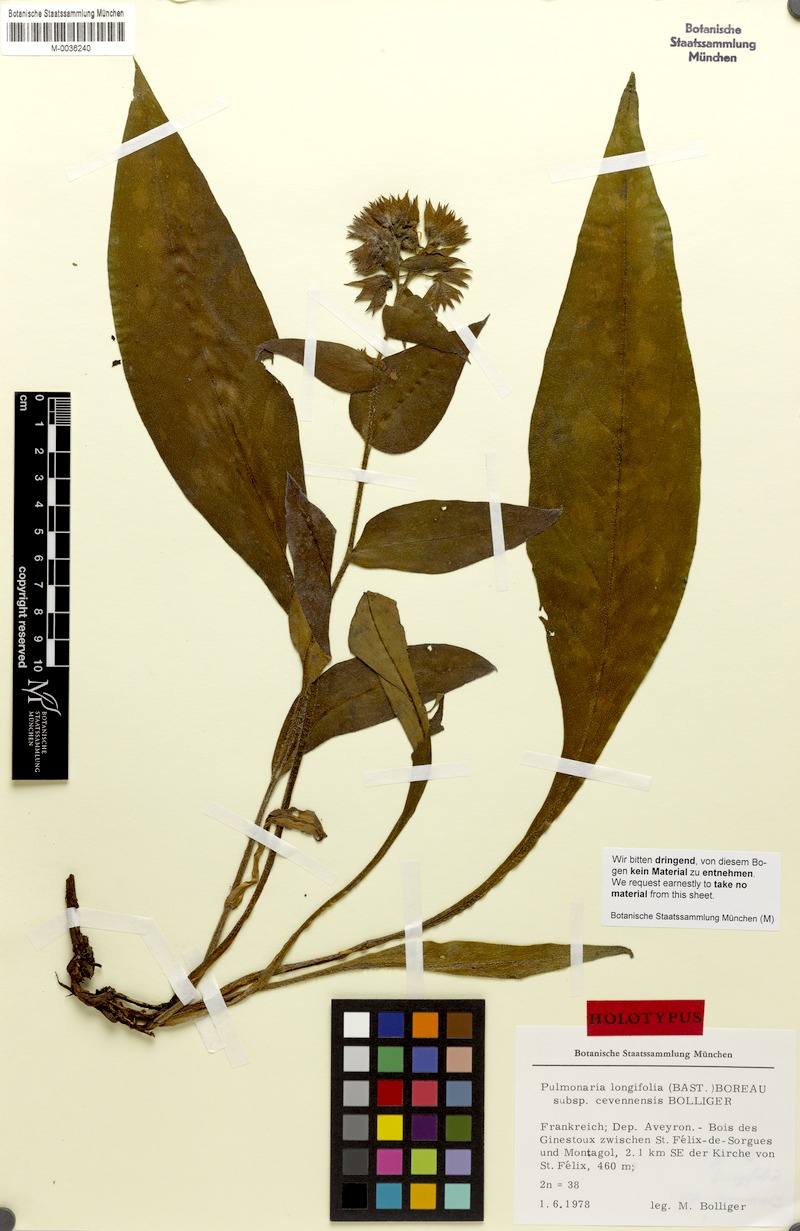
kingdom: Plantae
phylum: Tracheophyta
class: Magnoliopsida
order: Boraginales
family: Boraginaceae
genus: Pulmonaria
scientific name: Pulmonaria longifolia
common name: Narrow-leaved lungwort
